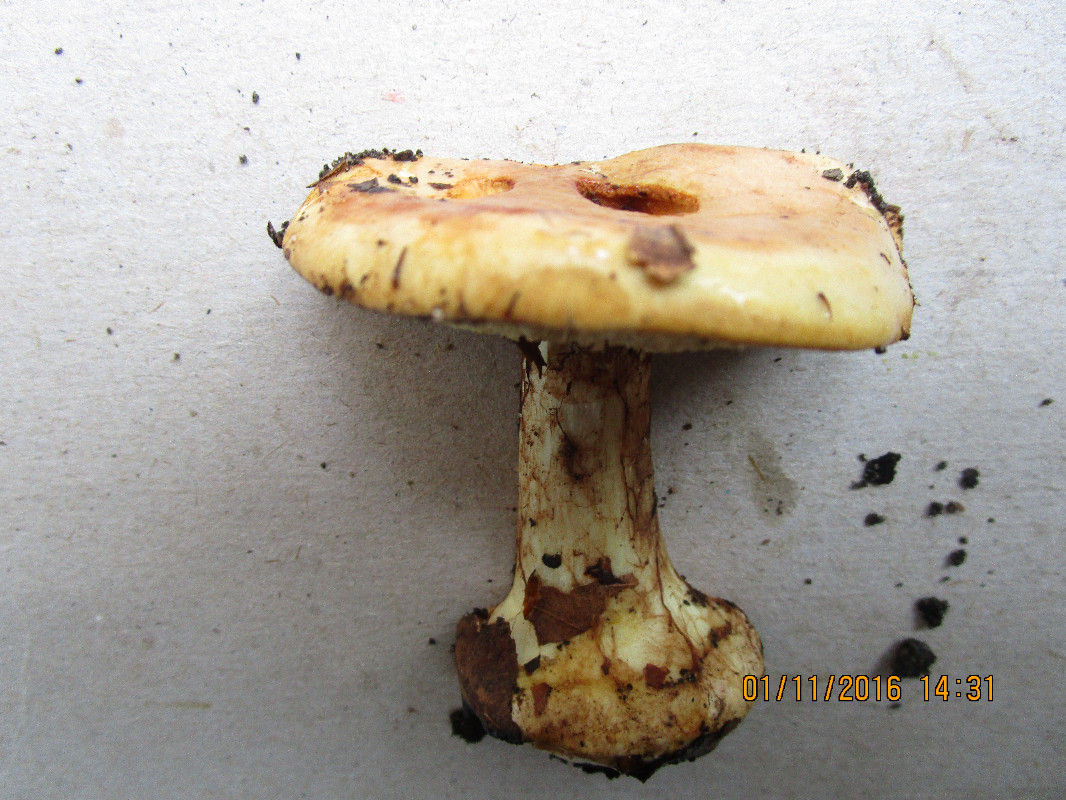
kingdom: Fungi
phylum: Basidiomycota
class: Agaricomycetes
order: Agaricales
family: Cortinariaceae
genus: Calonarius
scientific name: Calonarius humolens
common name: radise-slørhat
